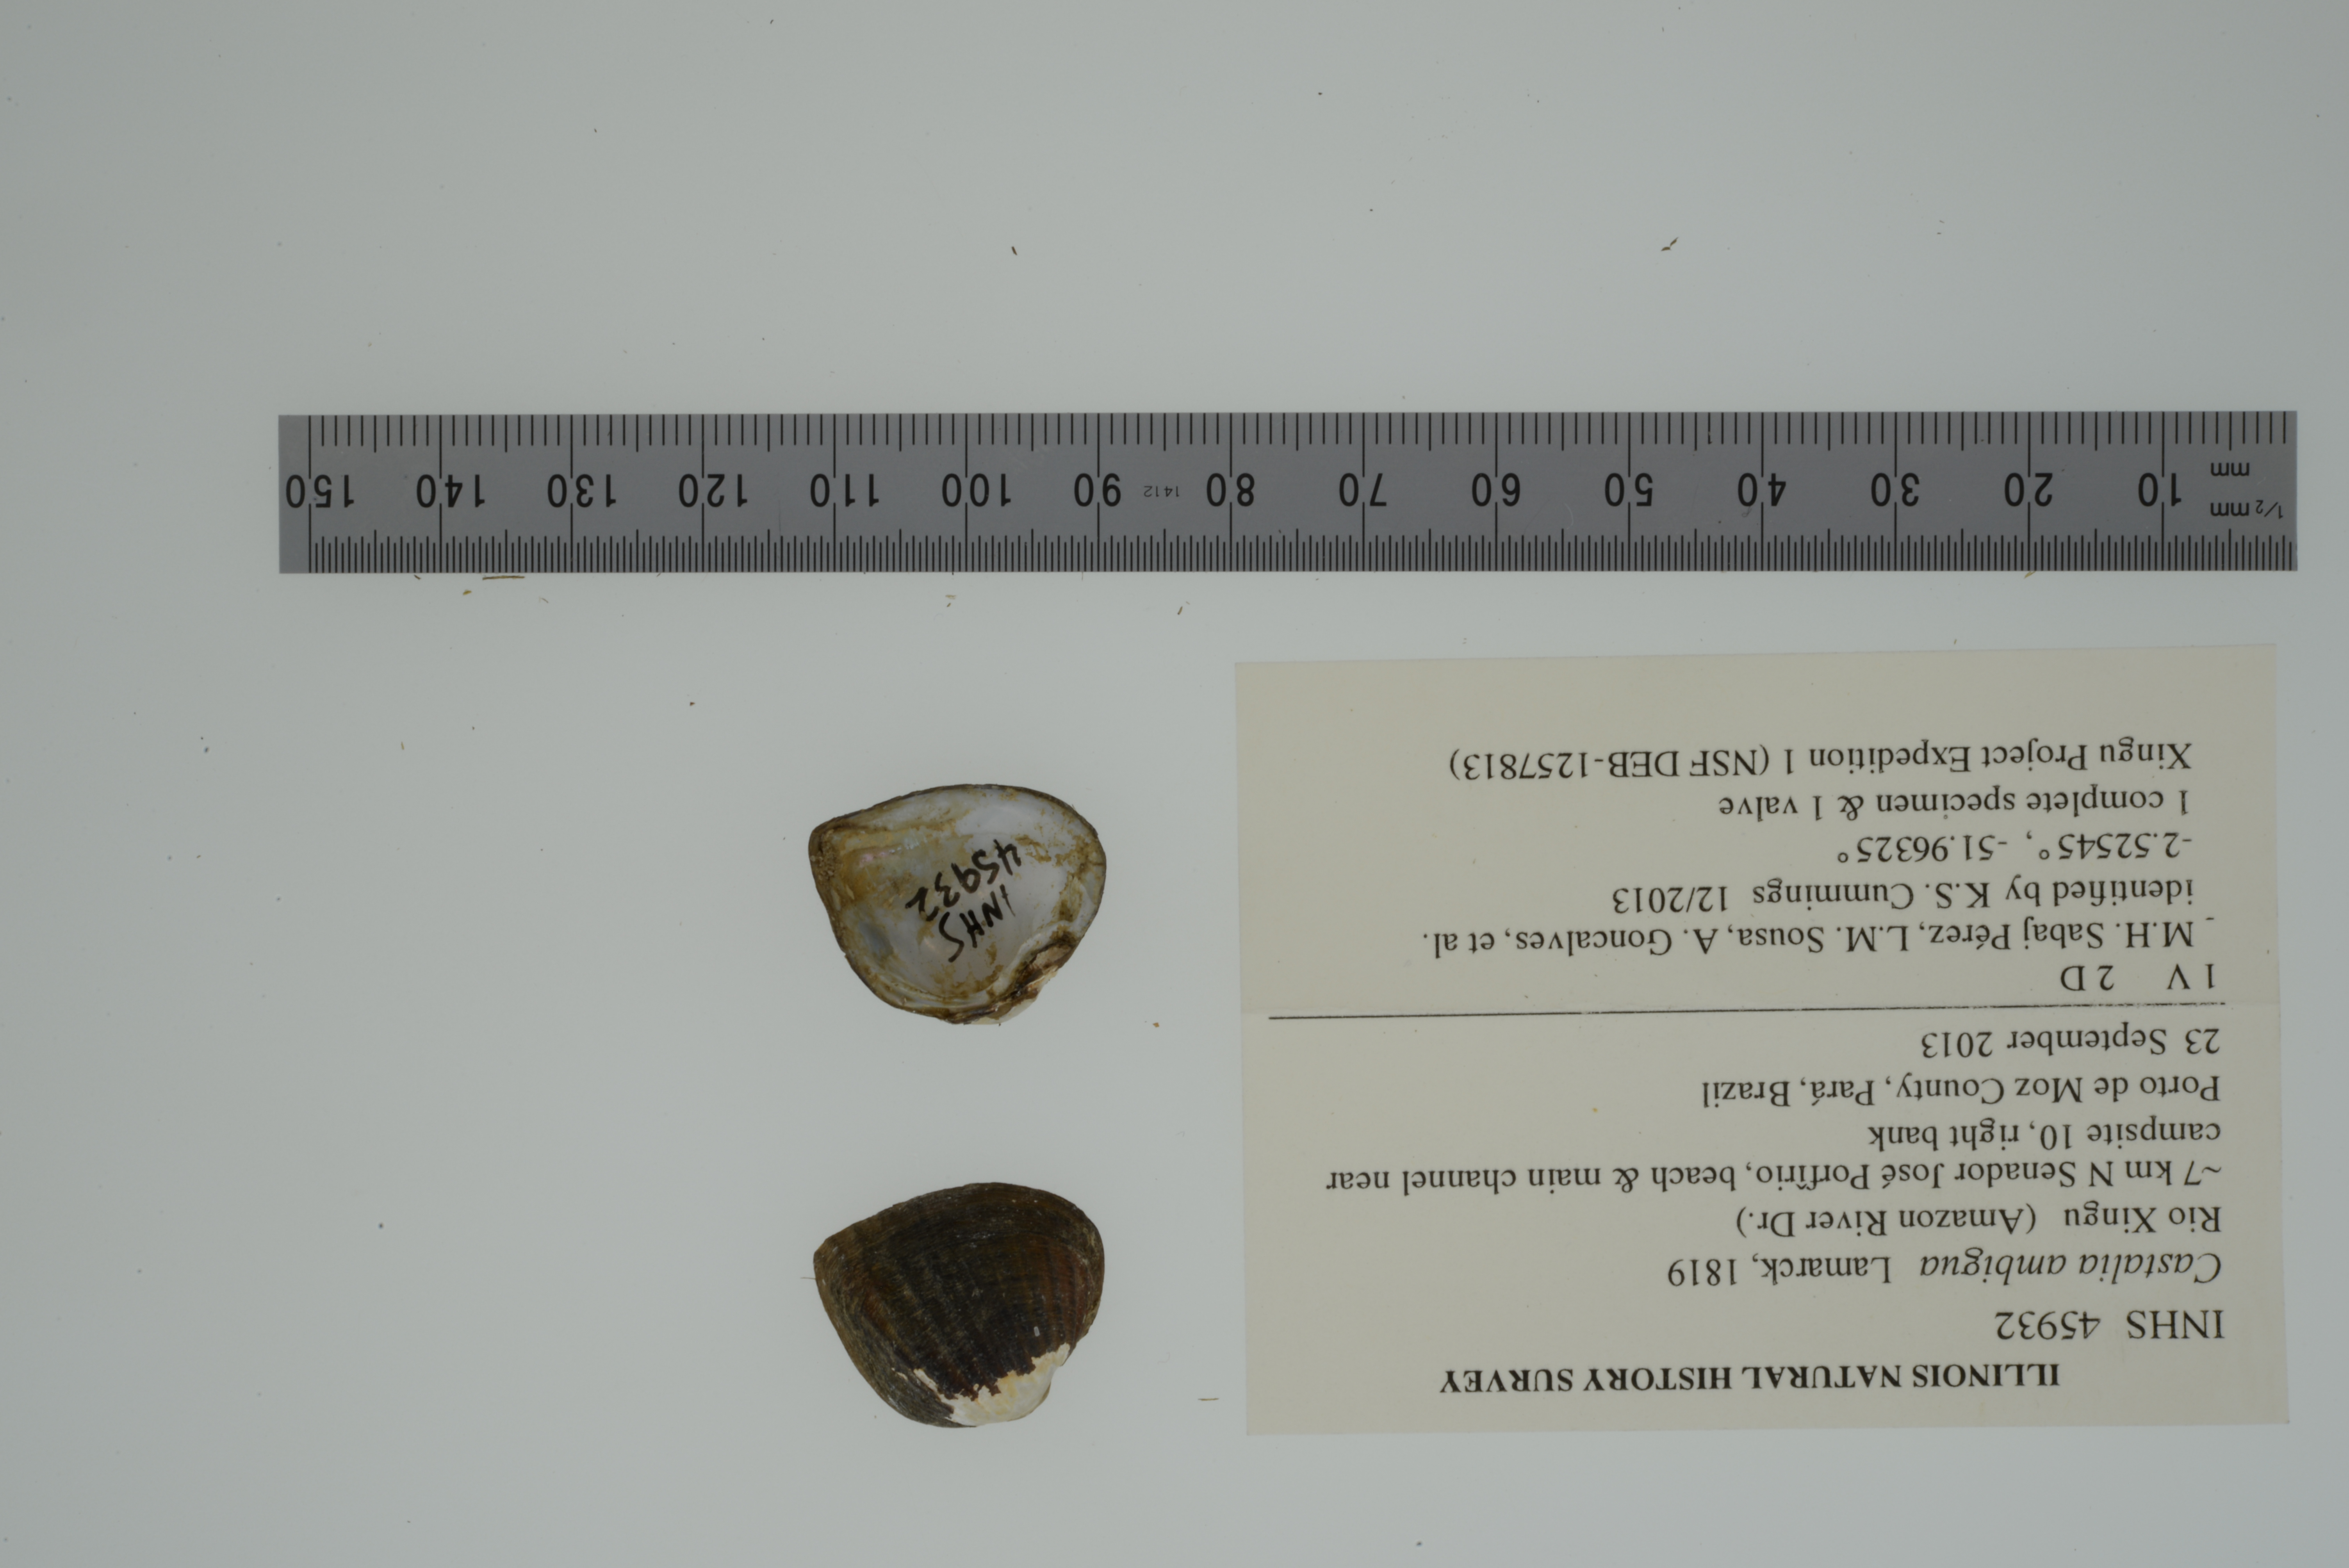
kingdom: Animalia
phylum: Mollusca
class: Bivalvia
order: Unionida
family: Hyriidae
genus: Castalia
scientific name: Castalia ambigua
